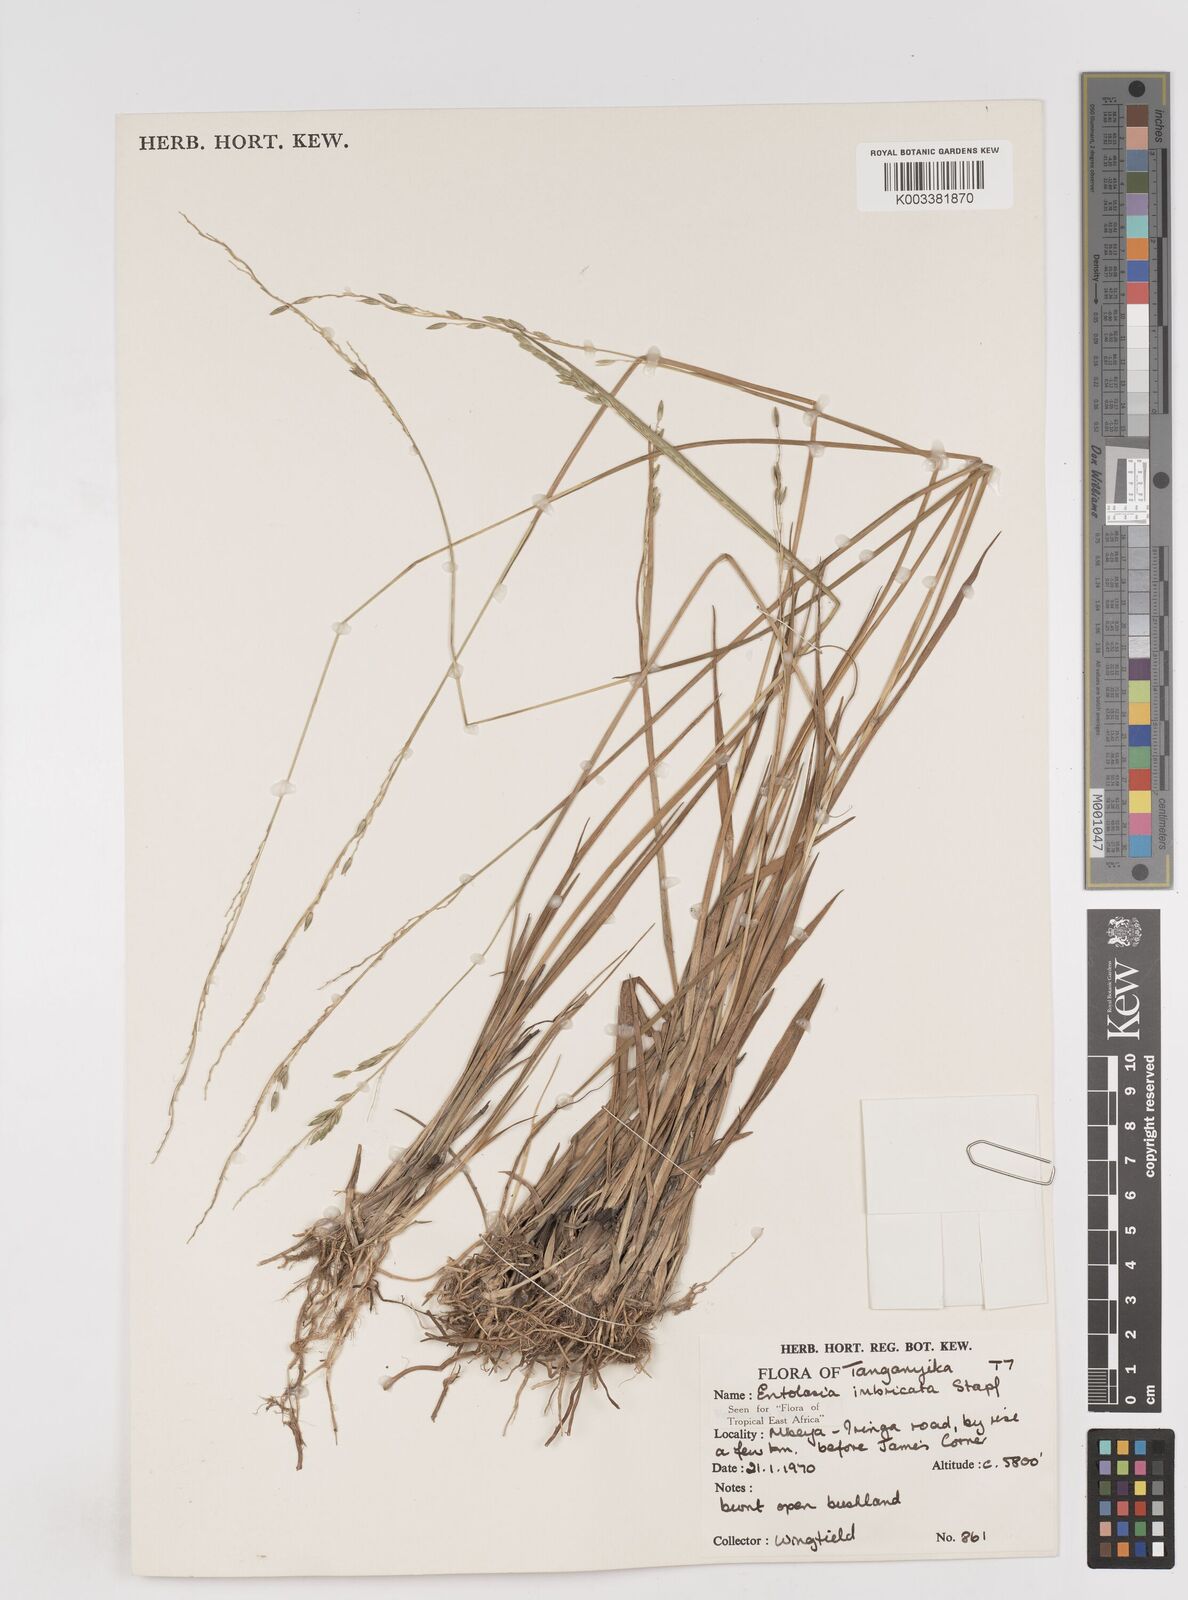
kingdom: Plantae
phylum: Tracheophyta
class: Liliopsida
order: Poales
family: Poaceae
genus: Entolasia
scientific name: Entolasia imbricata
